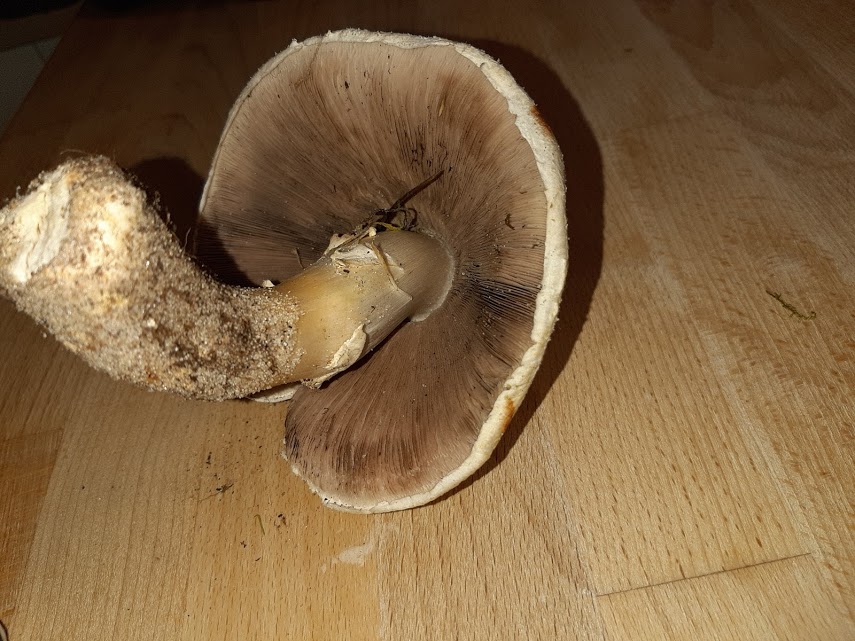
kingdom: Fungi
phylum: Basidiomycota
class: Agaricomycetes
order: Agaricales
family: Agaricaceae
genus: Agaricus
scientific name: Agaricus
